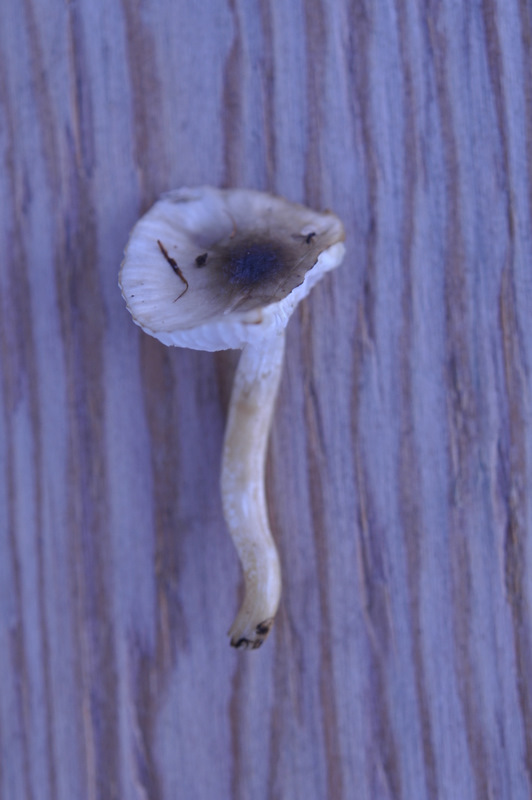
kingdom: Fungi
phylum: Basidiomycota
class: Agaricomycetes
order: Agaricales
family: Hygrophoraceae
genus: Hygrophorus
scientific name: Hygrophorus mesotephrus
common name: askegrå sneglehat
